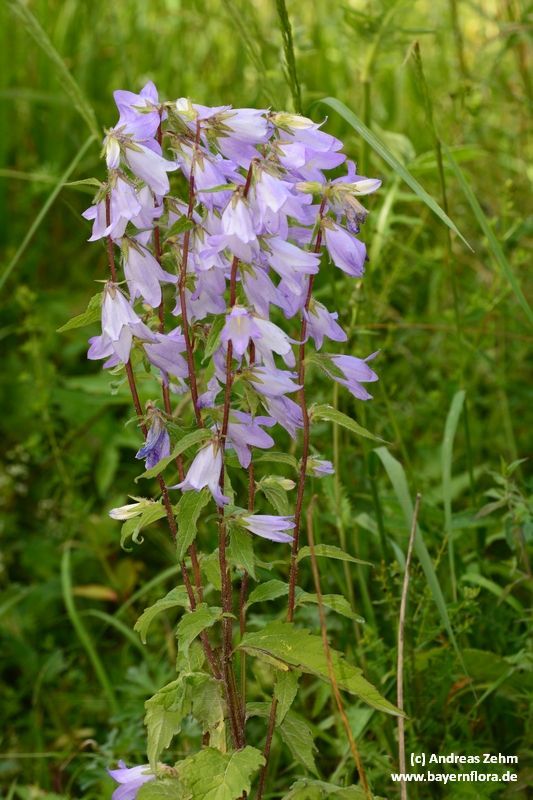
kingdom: Plantae
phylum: Tracheophyta
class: Magnoliopsida
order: Asterales
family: Campanulaceae
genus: Campanula
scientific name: Campanula trachelium
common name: Nettle-leaved bellflower
